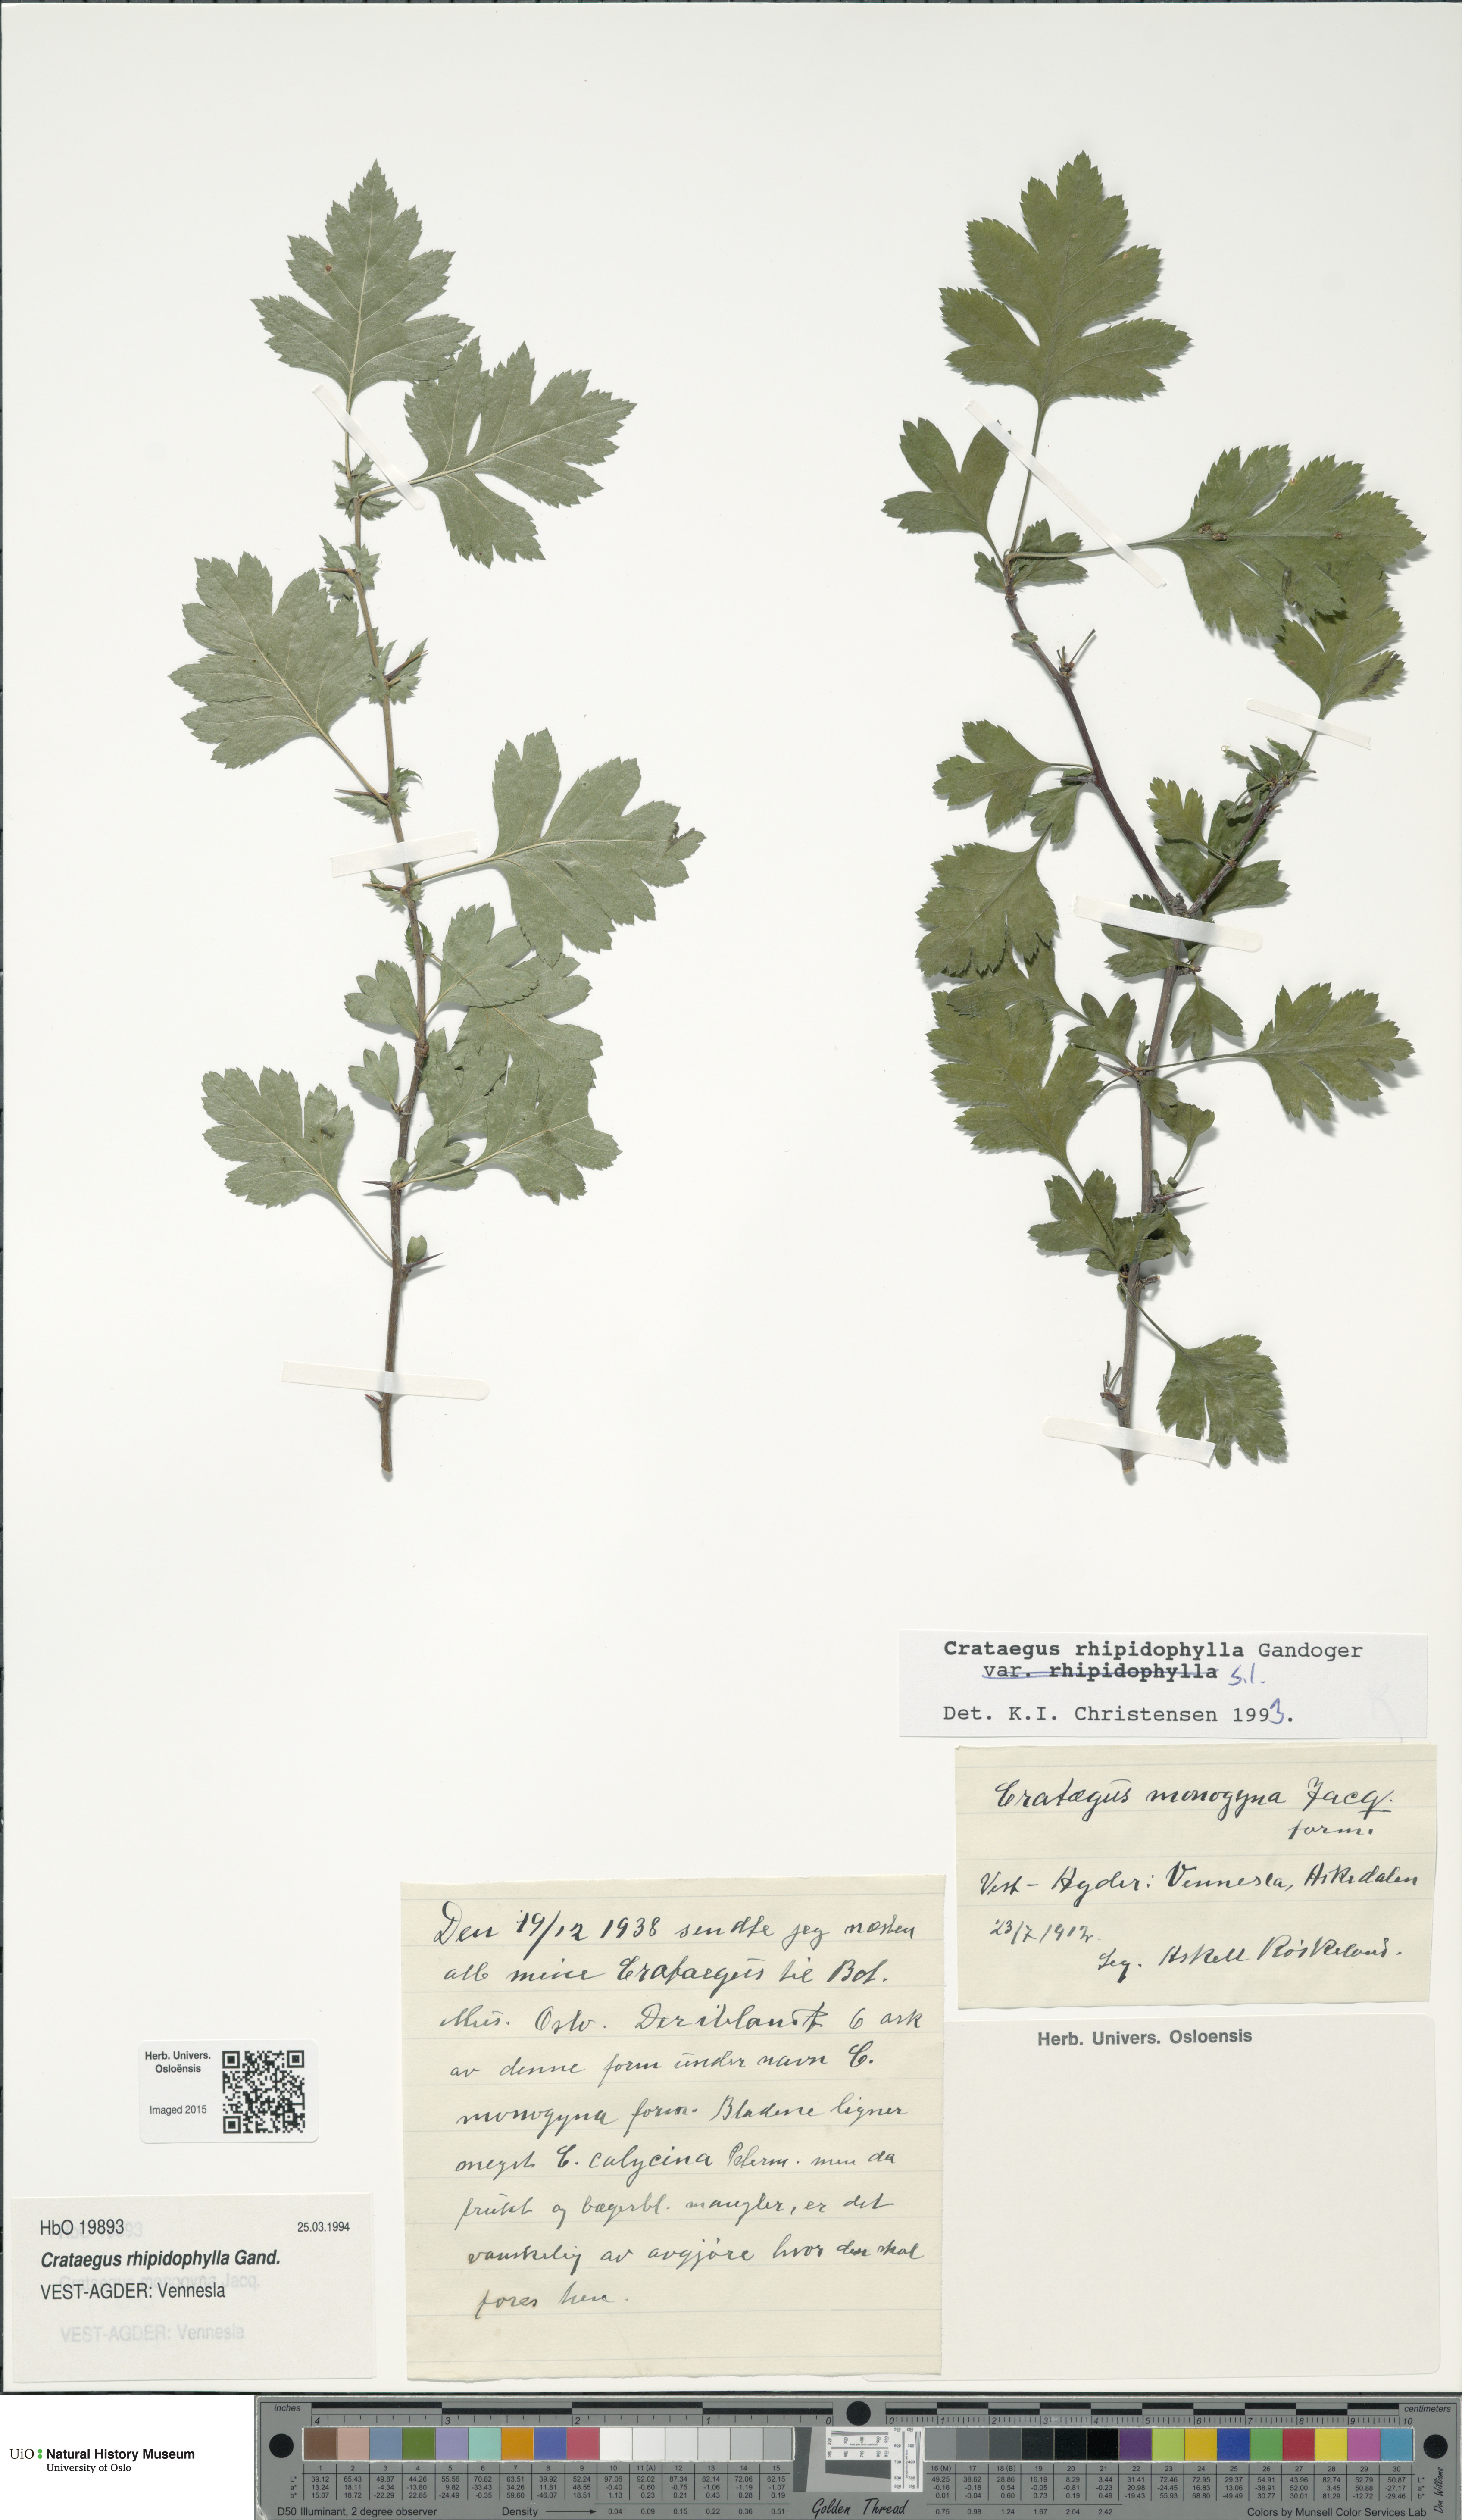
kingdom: Plantae
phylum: Tracheophyta
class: Magnoliopsida
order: Rosales
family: Rosaceae
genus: Crataegus
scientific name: Crataegus monogyna
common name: Hawthorn
